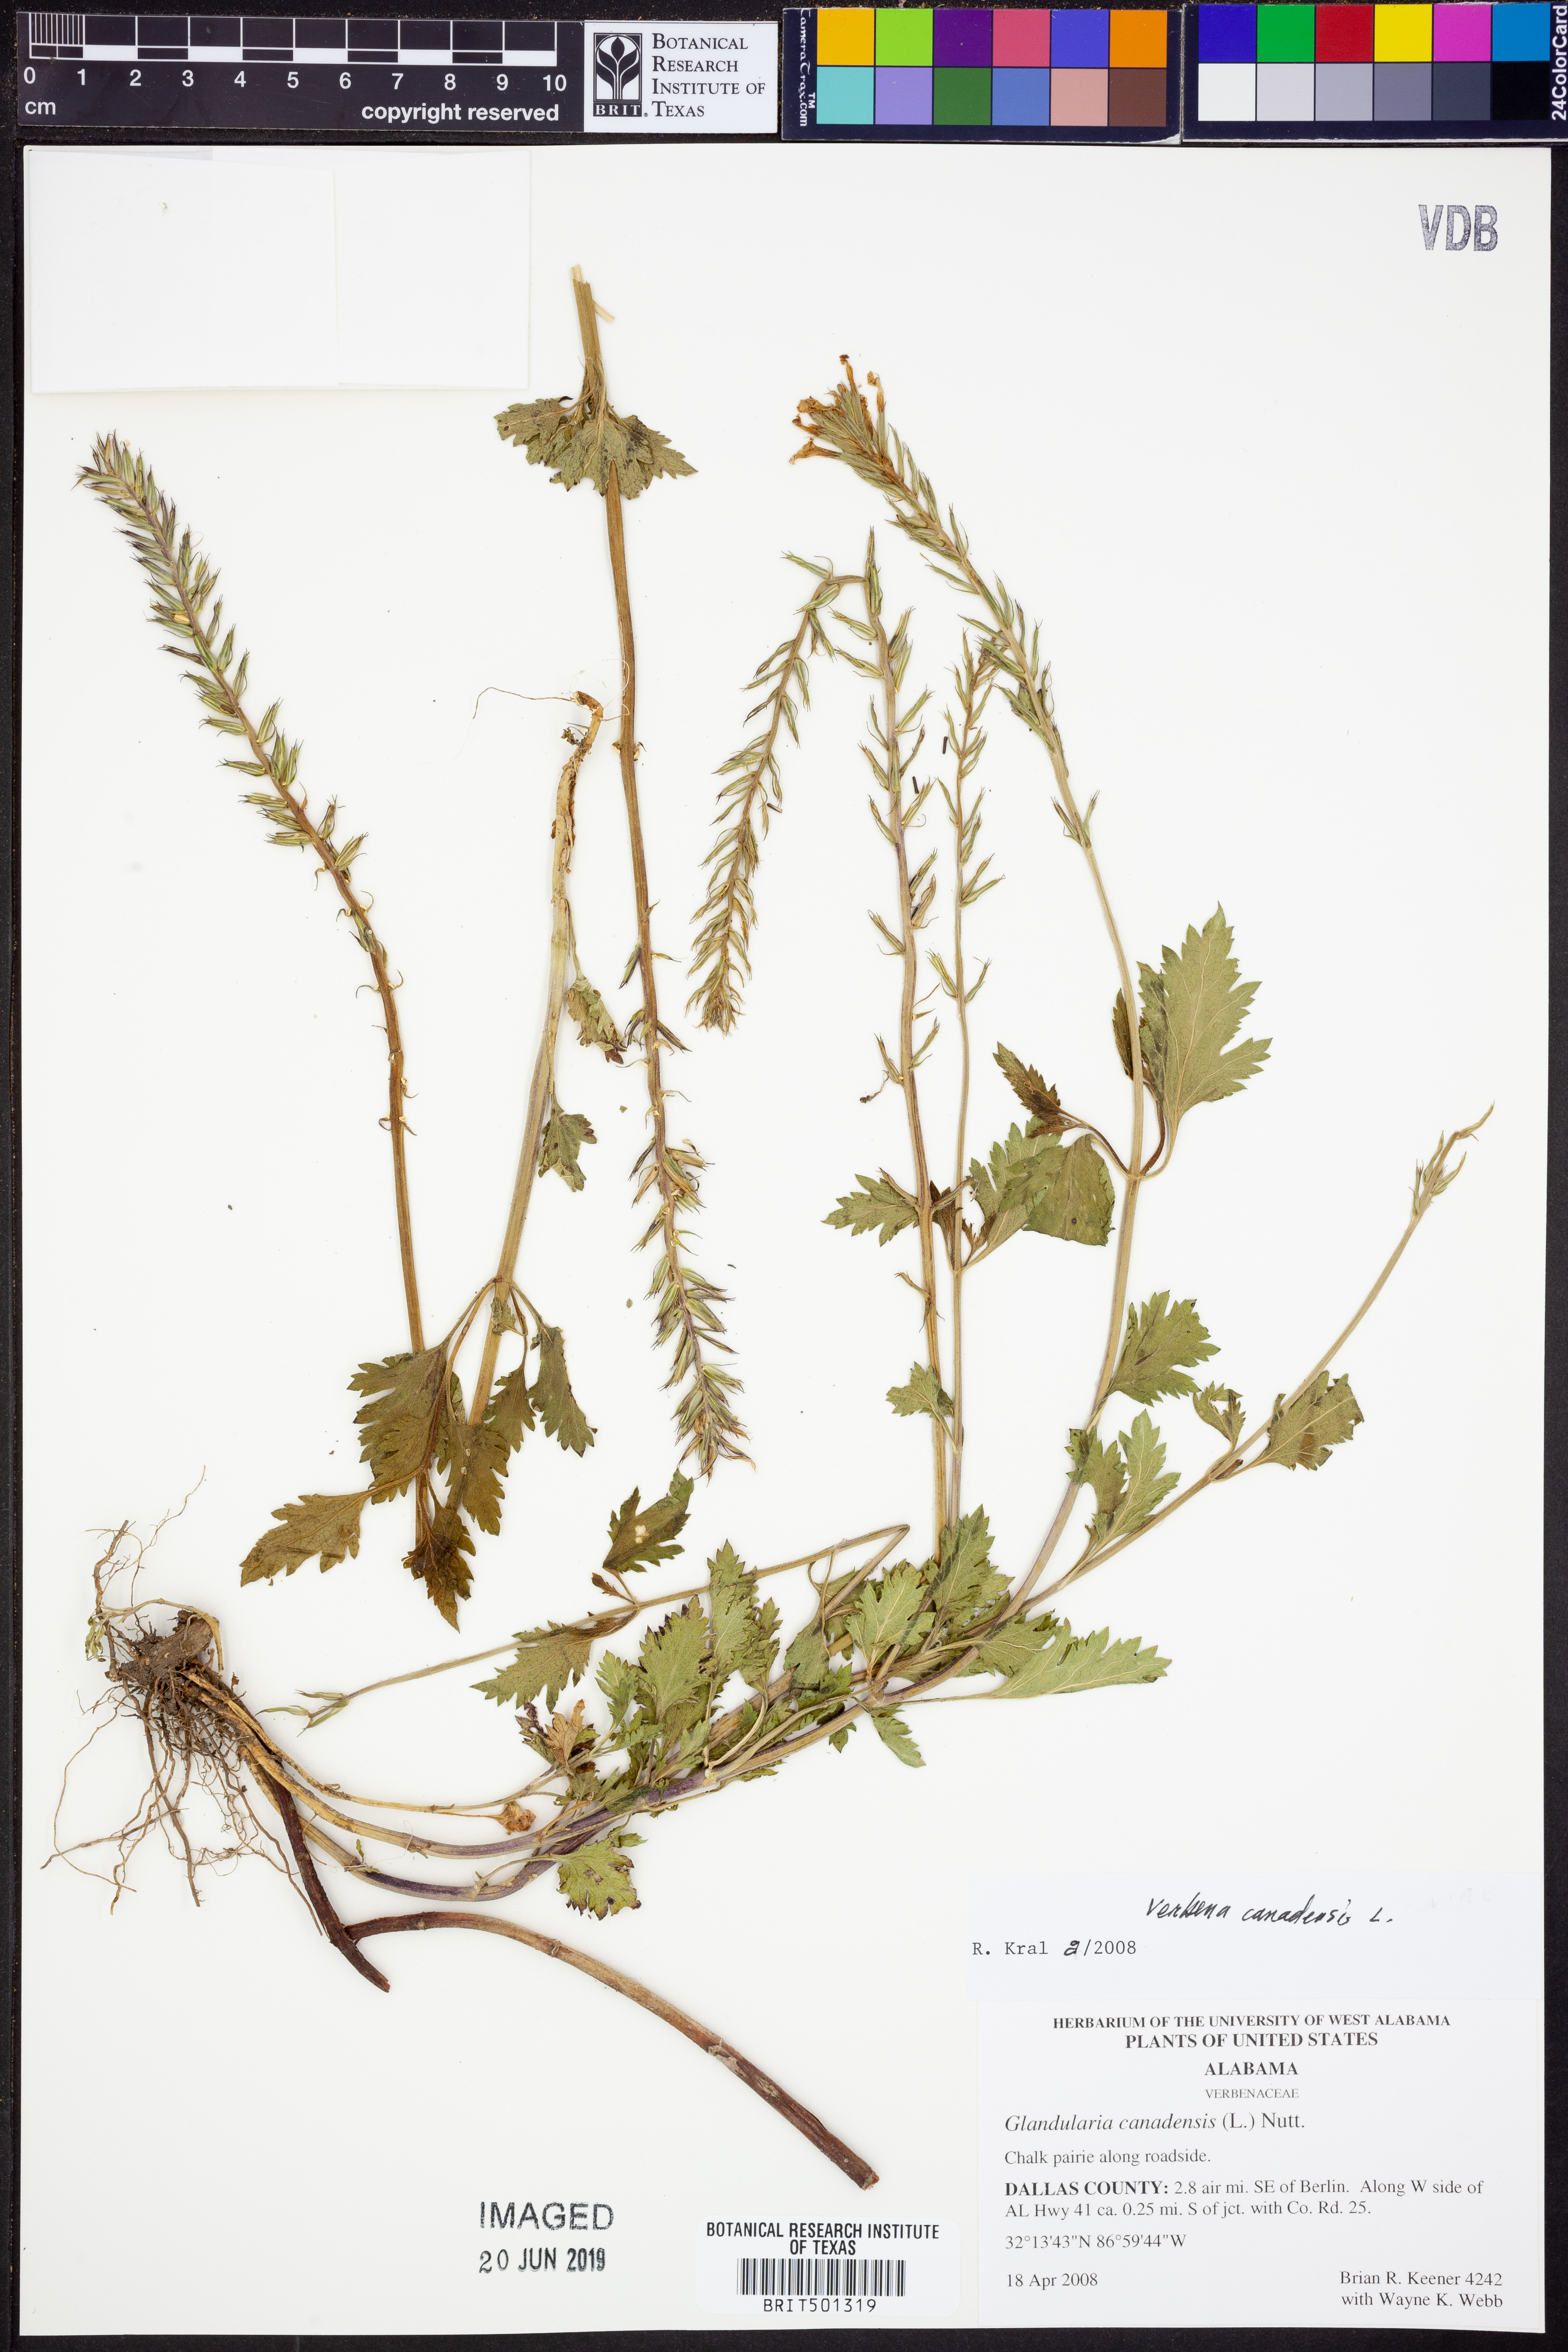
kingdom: Plantae
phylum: Tracheophyta
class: Magnoliopsida
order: Lamiales
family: Verbenaceae
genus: Verbena
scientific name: Verbena canadensis
